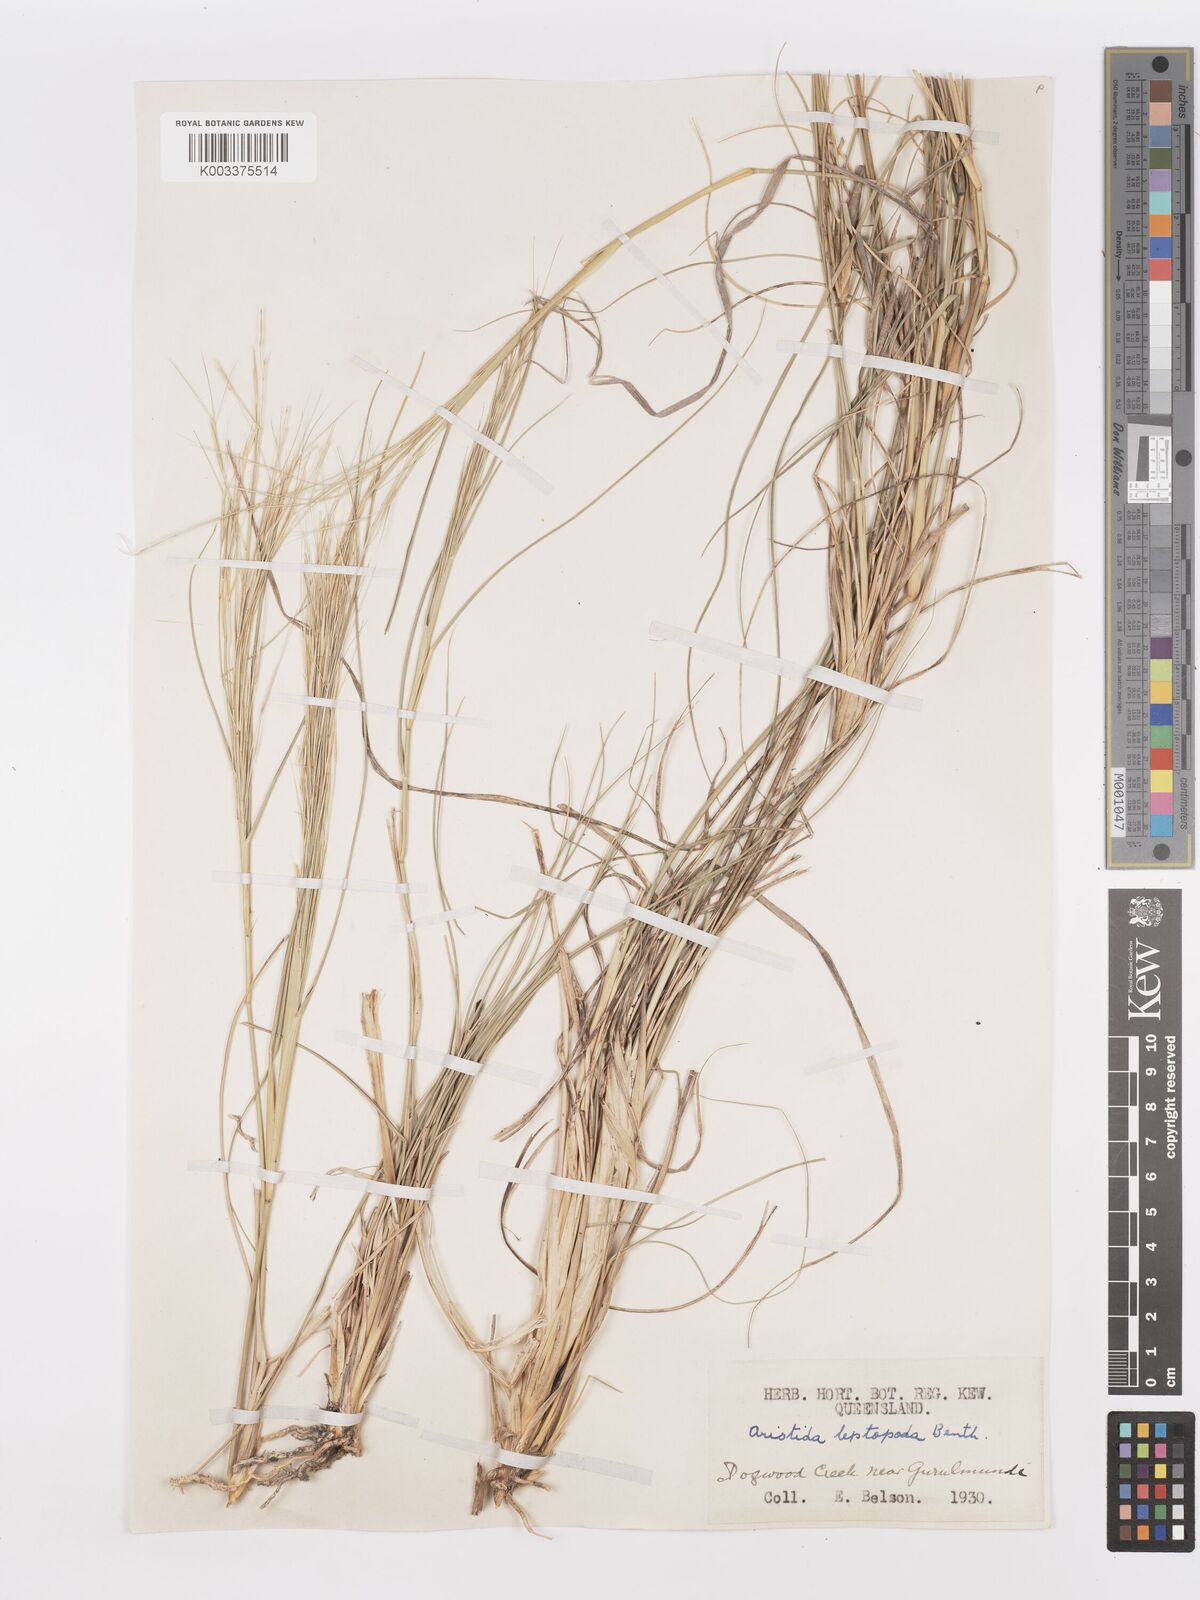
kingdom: Plantae
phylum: Tracheophyta
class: Liliopsida
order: Poales
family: Poaceae
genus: Aristida
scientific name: Aristida leptopoda
